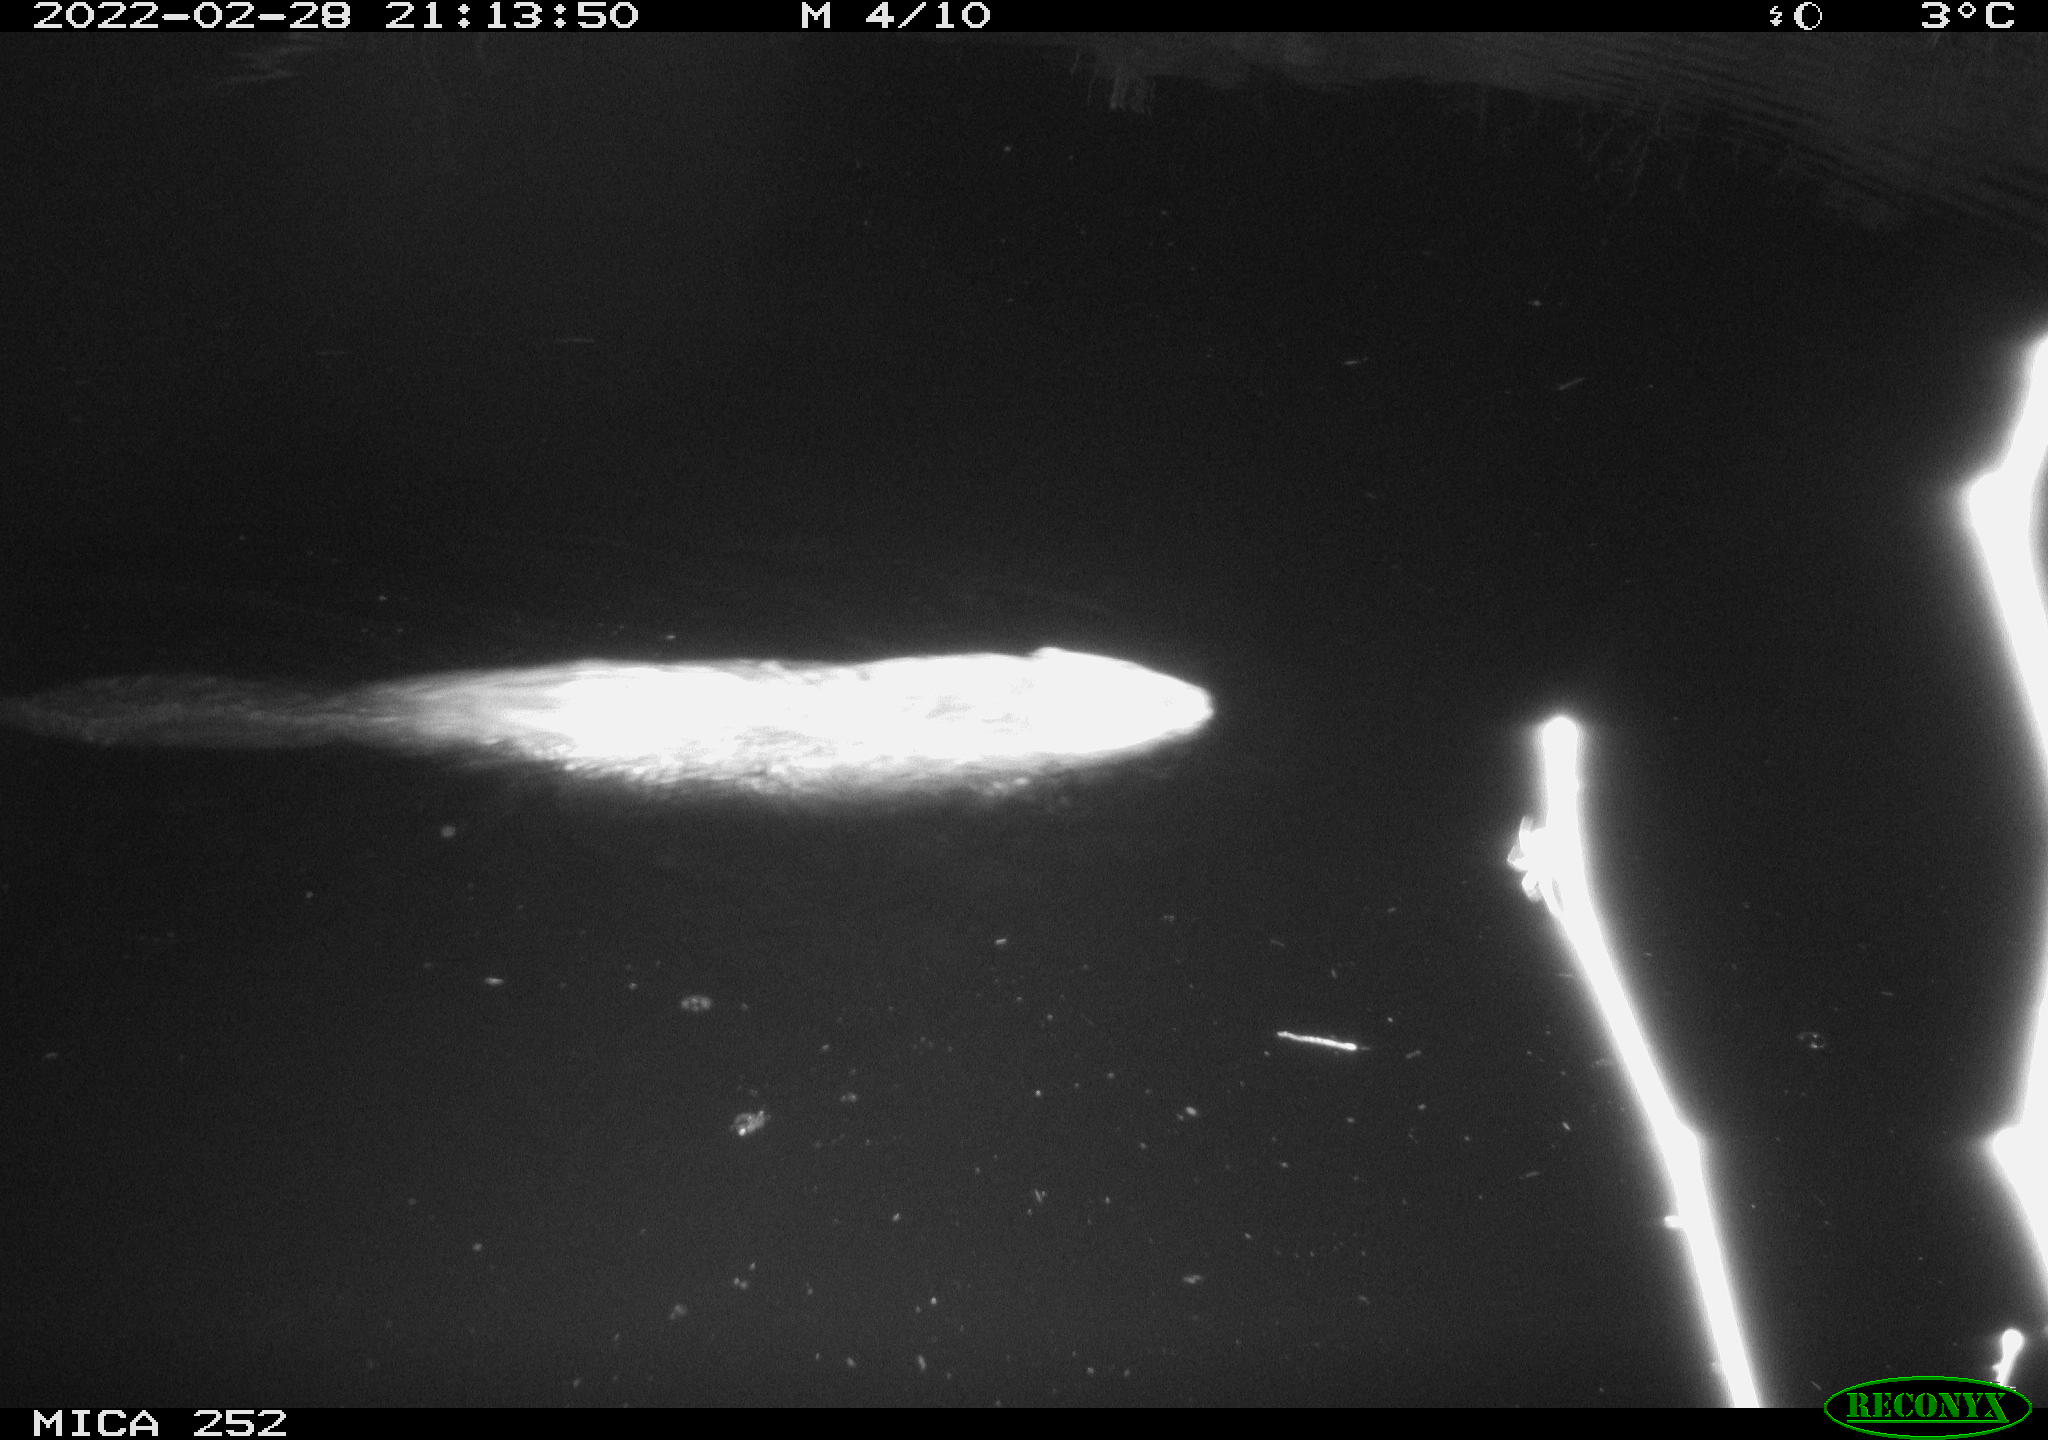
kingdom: Animalia
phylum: Chordata
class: Mammalia
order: Rodentia
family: Castoridae
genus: Castor
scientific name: Castor fiber
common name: Eurasian beaver
